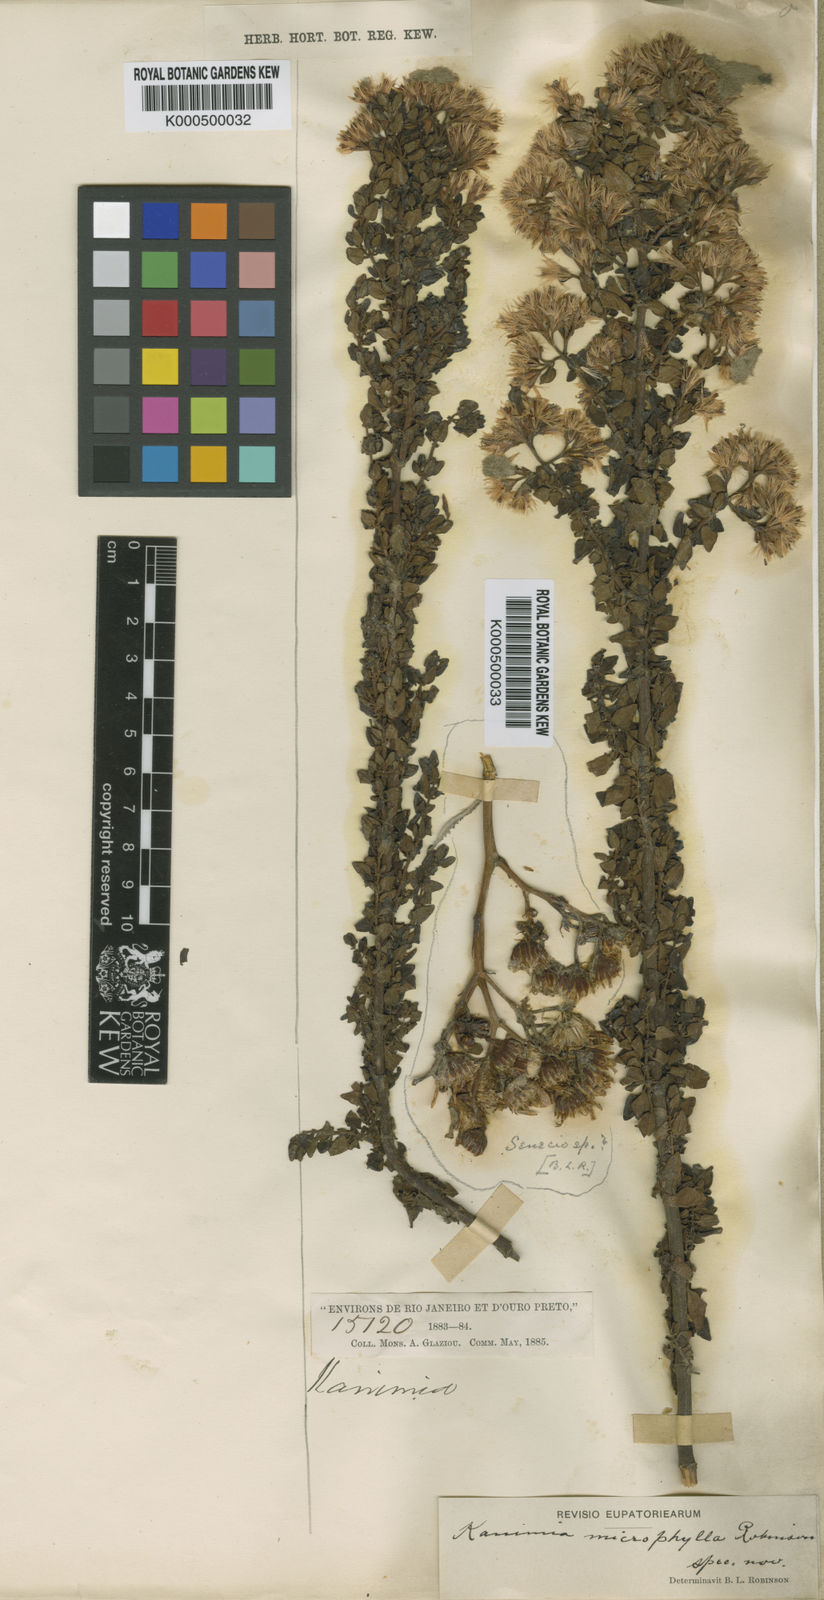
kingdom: Plantae
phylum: Tracheophyta
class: Magnoliopsida
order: Asterales
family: Asteraceae
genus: Mikania
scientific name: Mikania microphylla
